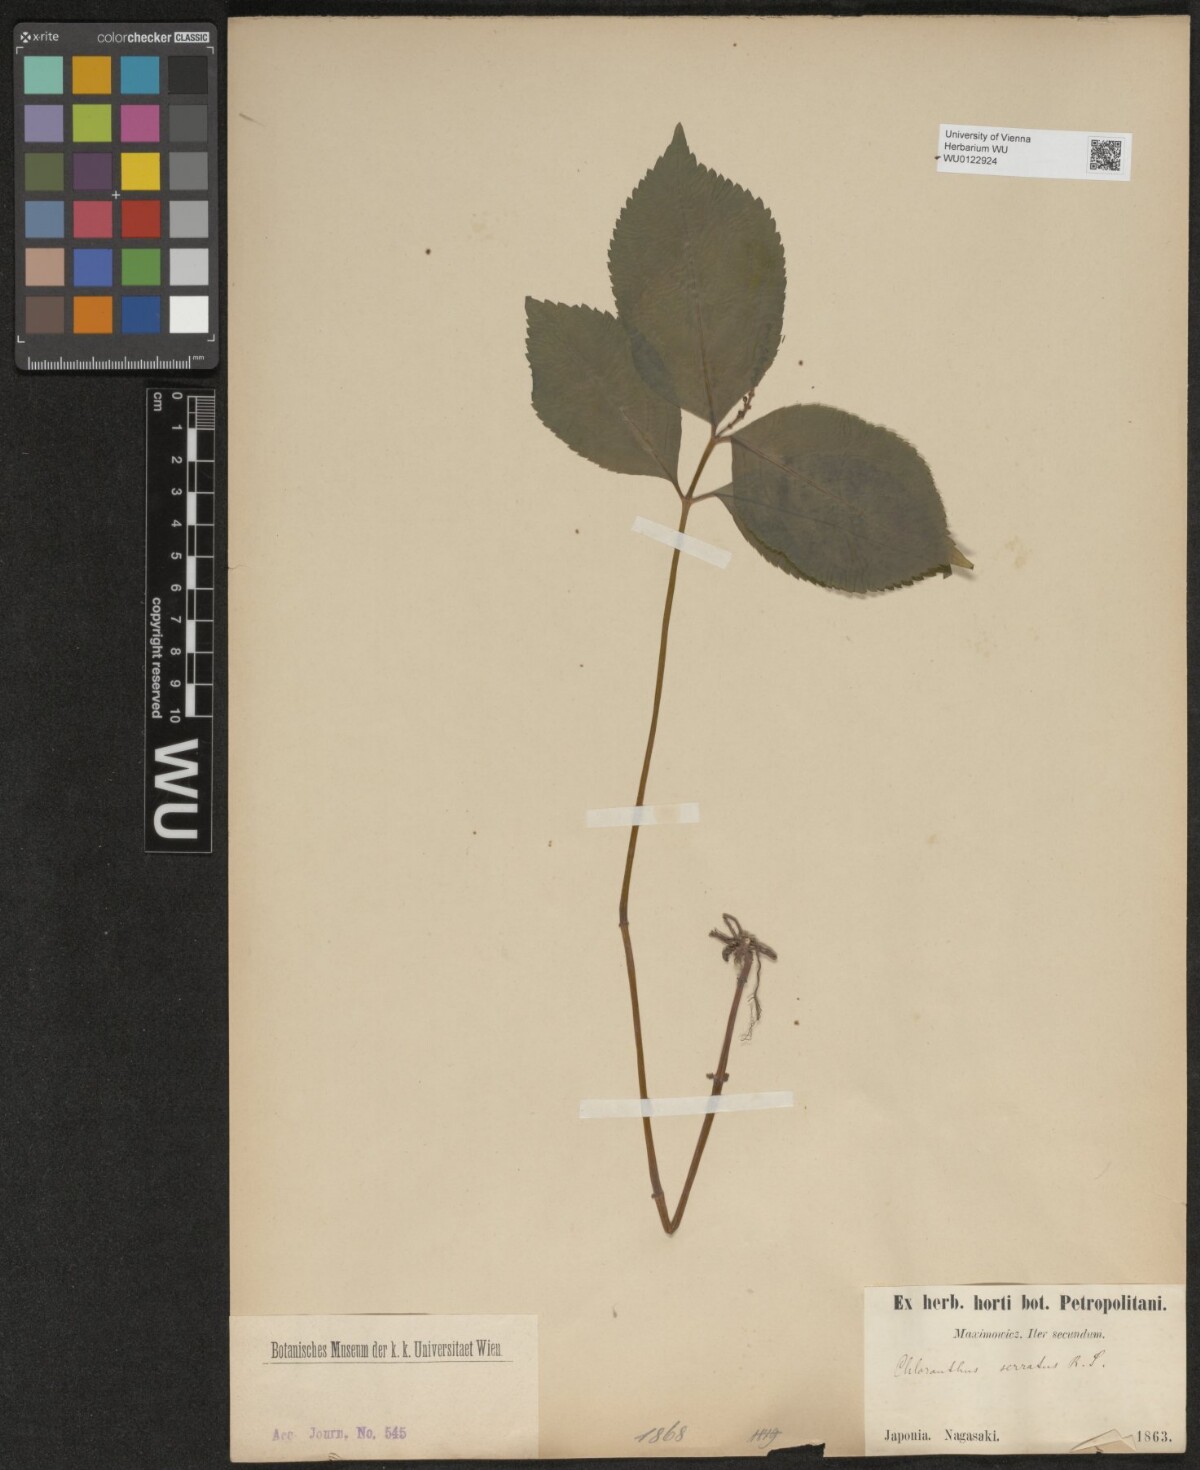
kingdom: Plantae
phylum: Tracheophyta
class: Magnoliopsida
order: Chloranthales
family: Chloranthaceae
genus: Chloranthus
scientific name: Chloranthus serratus
